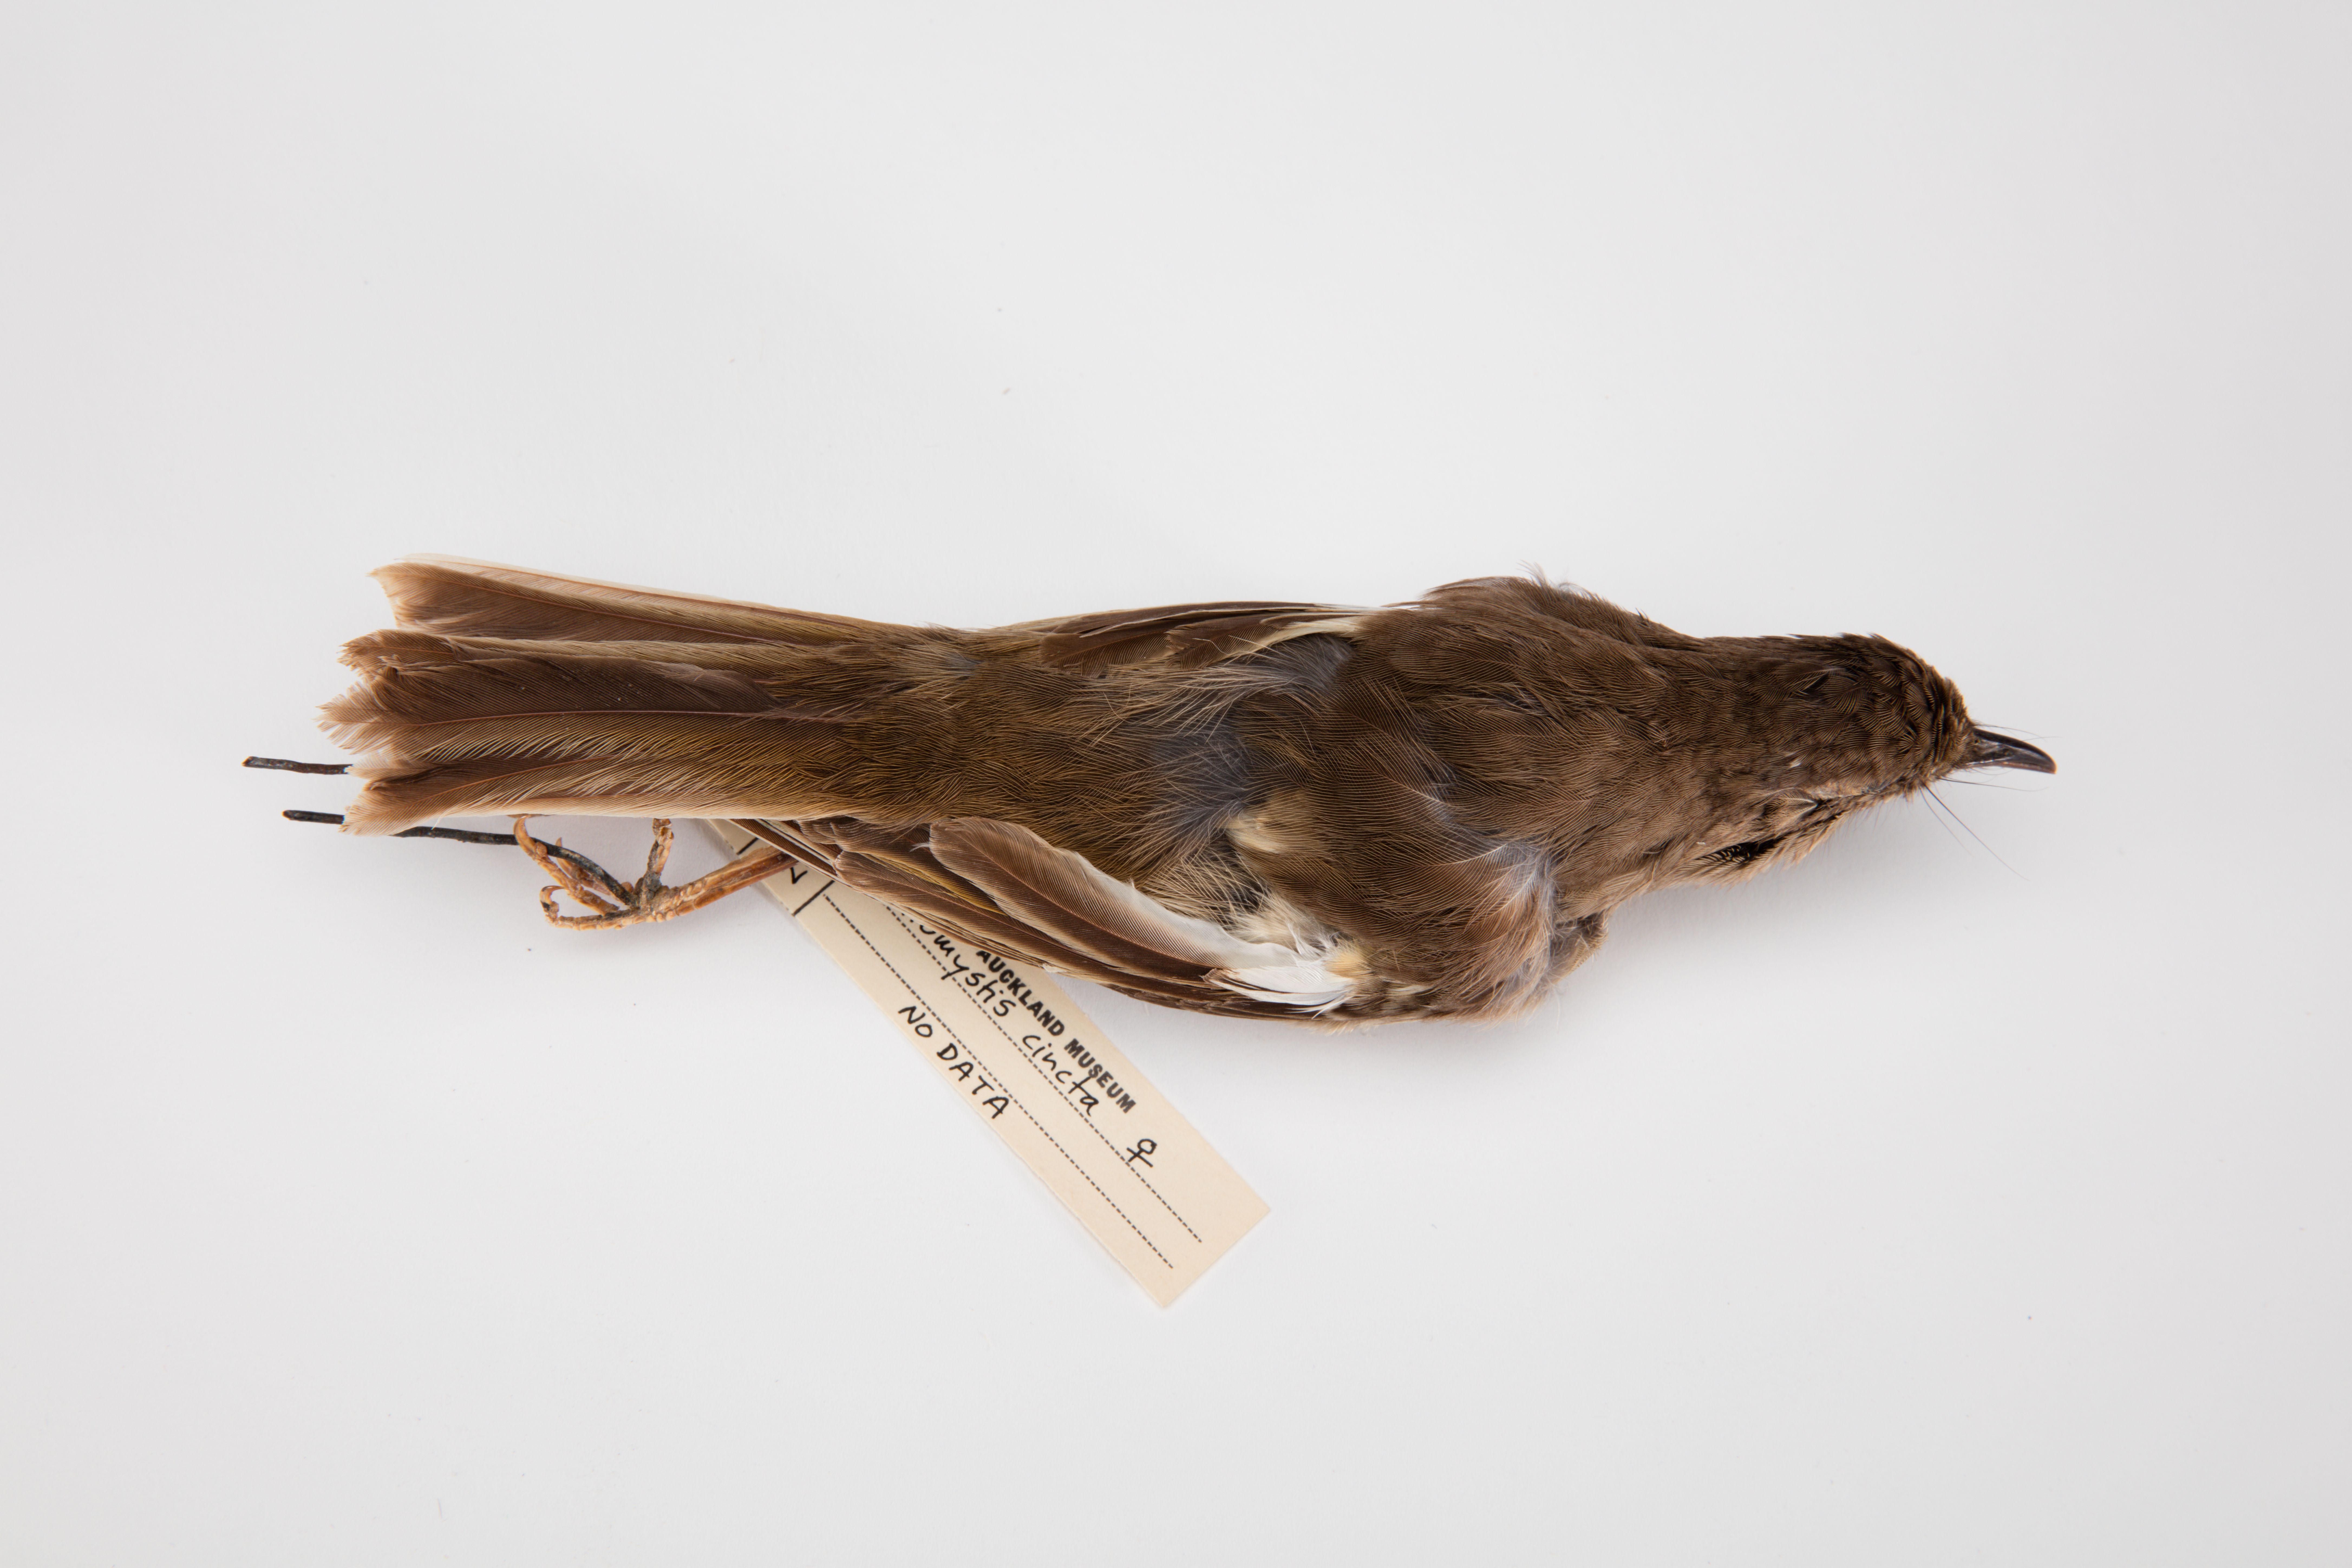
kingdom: Animalia
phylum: Chordata
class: Aves
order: Passeriformes
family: Notiomystidae
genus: Notiomystis
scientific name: Notiomystis cincta
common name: Stitchbird
